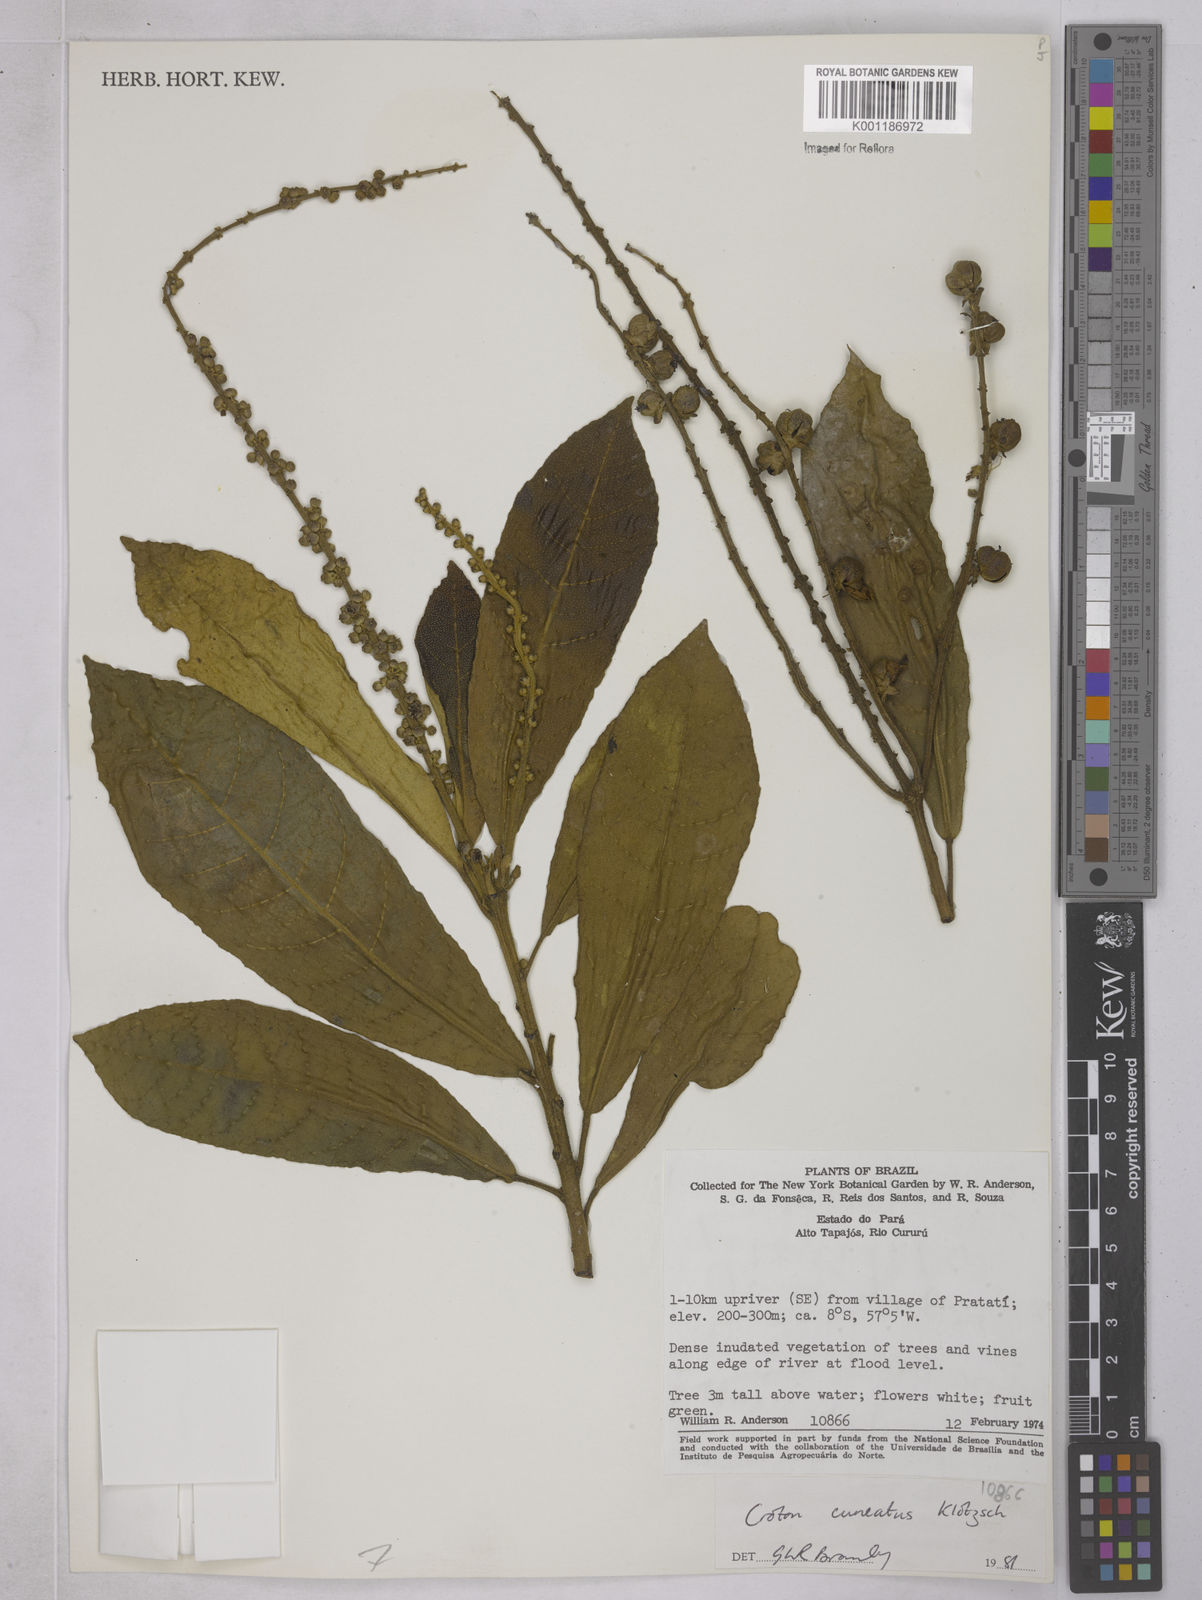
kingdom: Plantae
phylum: Tracheophyta
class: Magnoliopsida
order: Malpighiales
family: Euphorbiaceae
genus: Croton
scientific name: Croton
